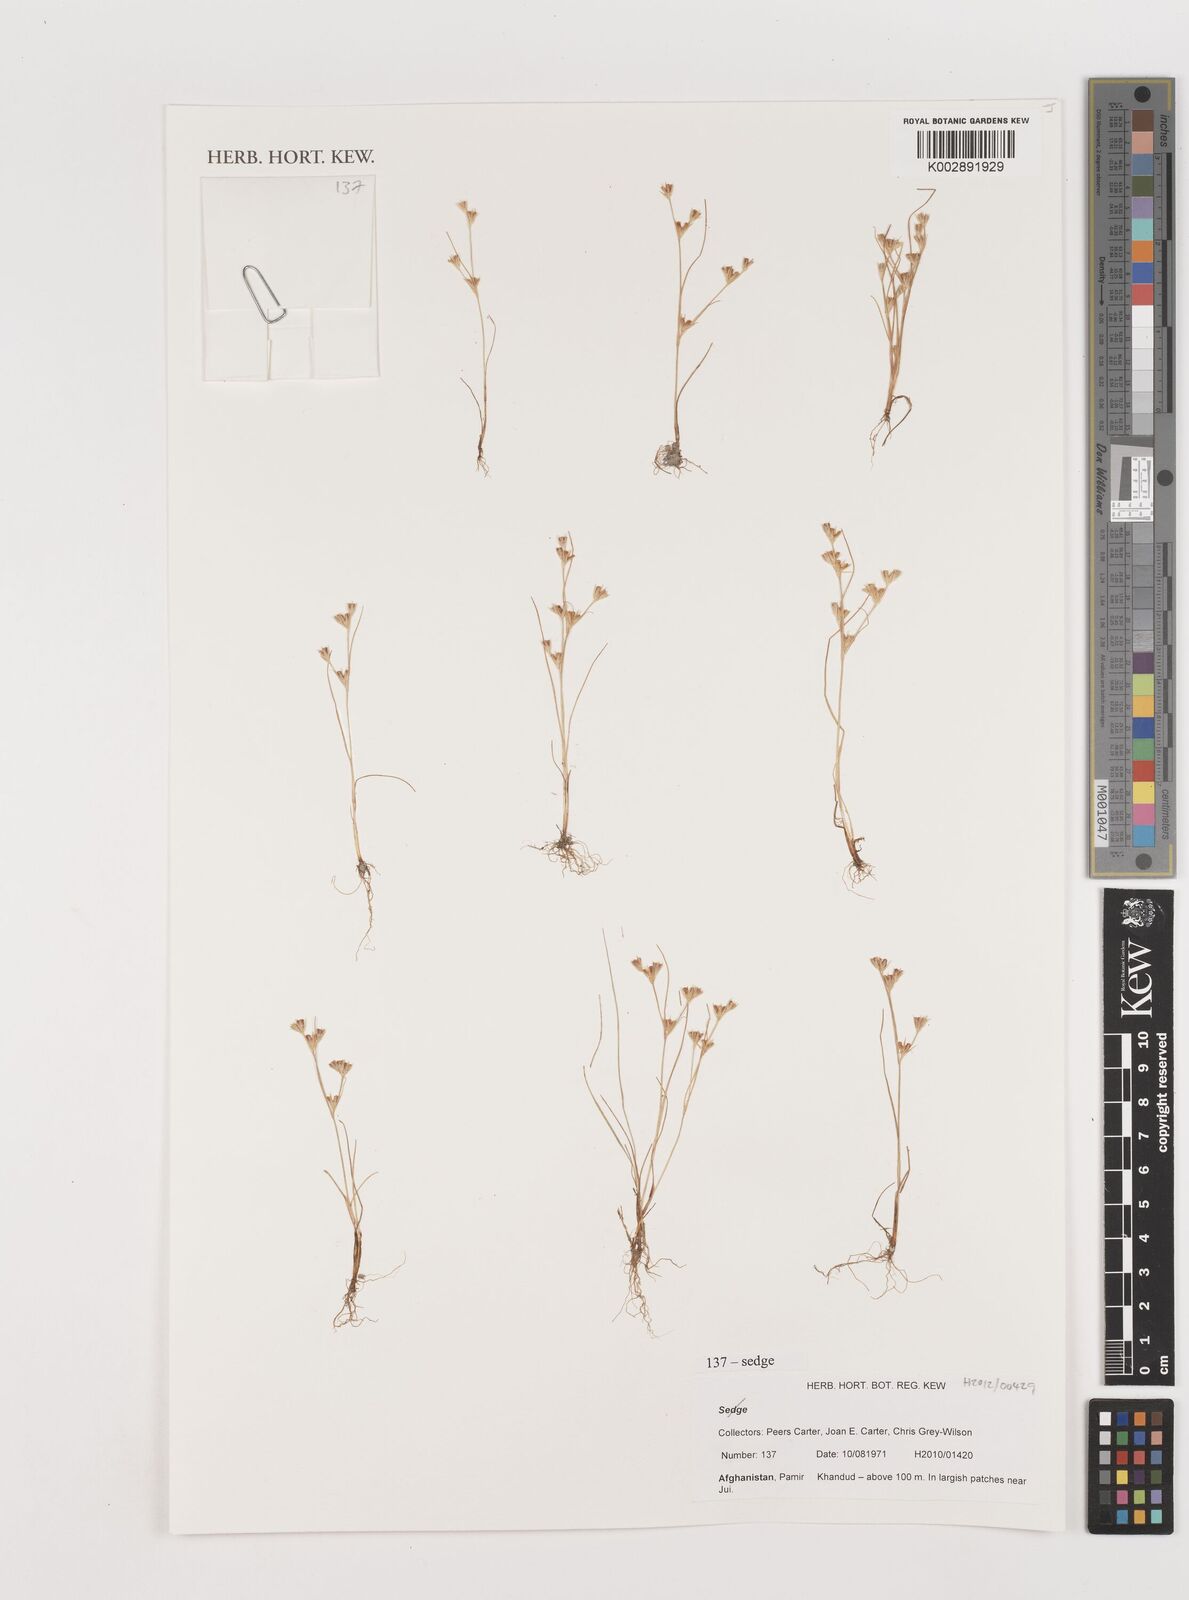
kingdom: Plantae
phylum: Tracheophyta
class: Liliopsida
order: Poales
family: Juncaceae
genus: Juncus
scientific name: Juncus
